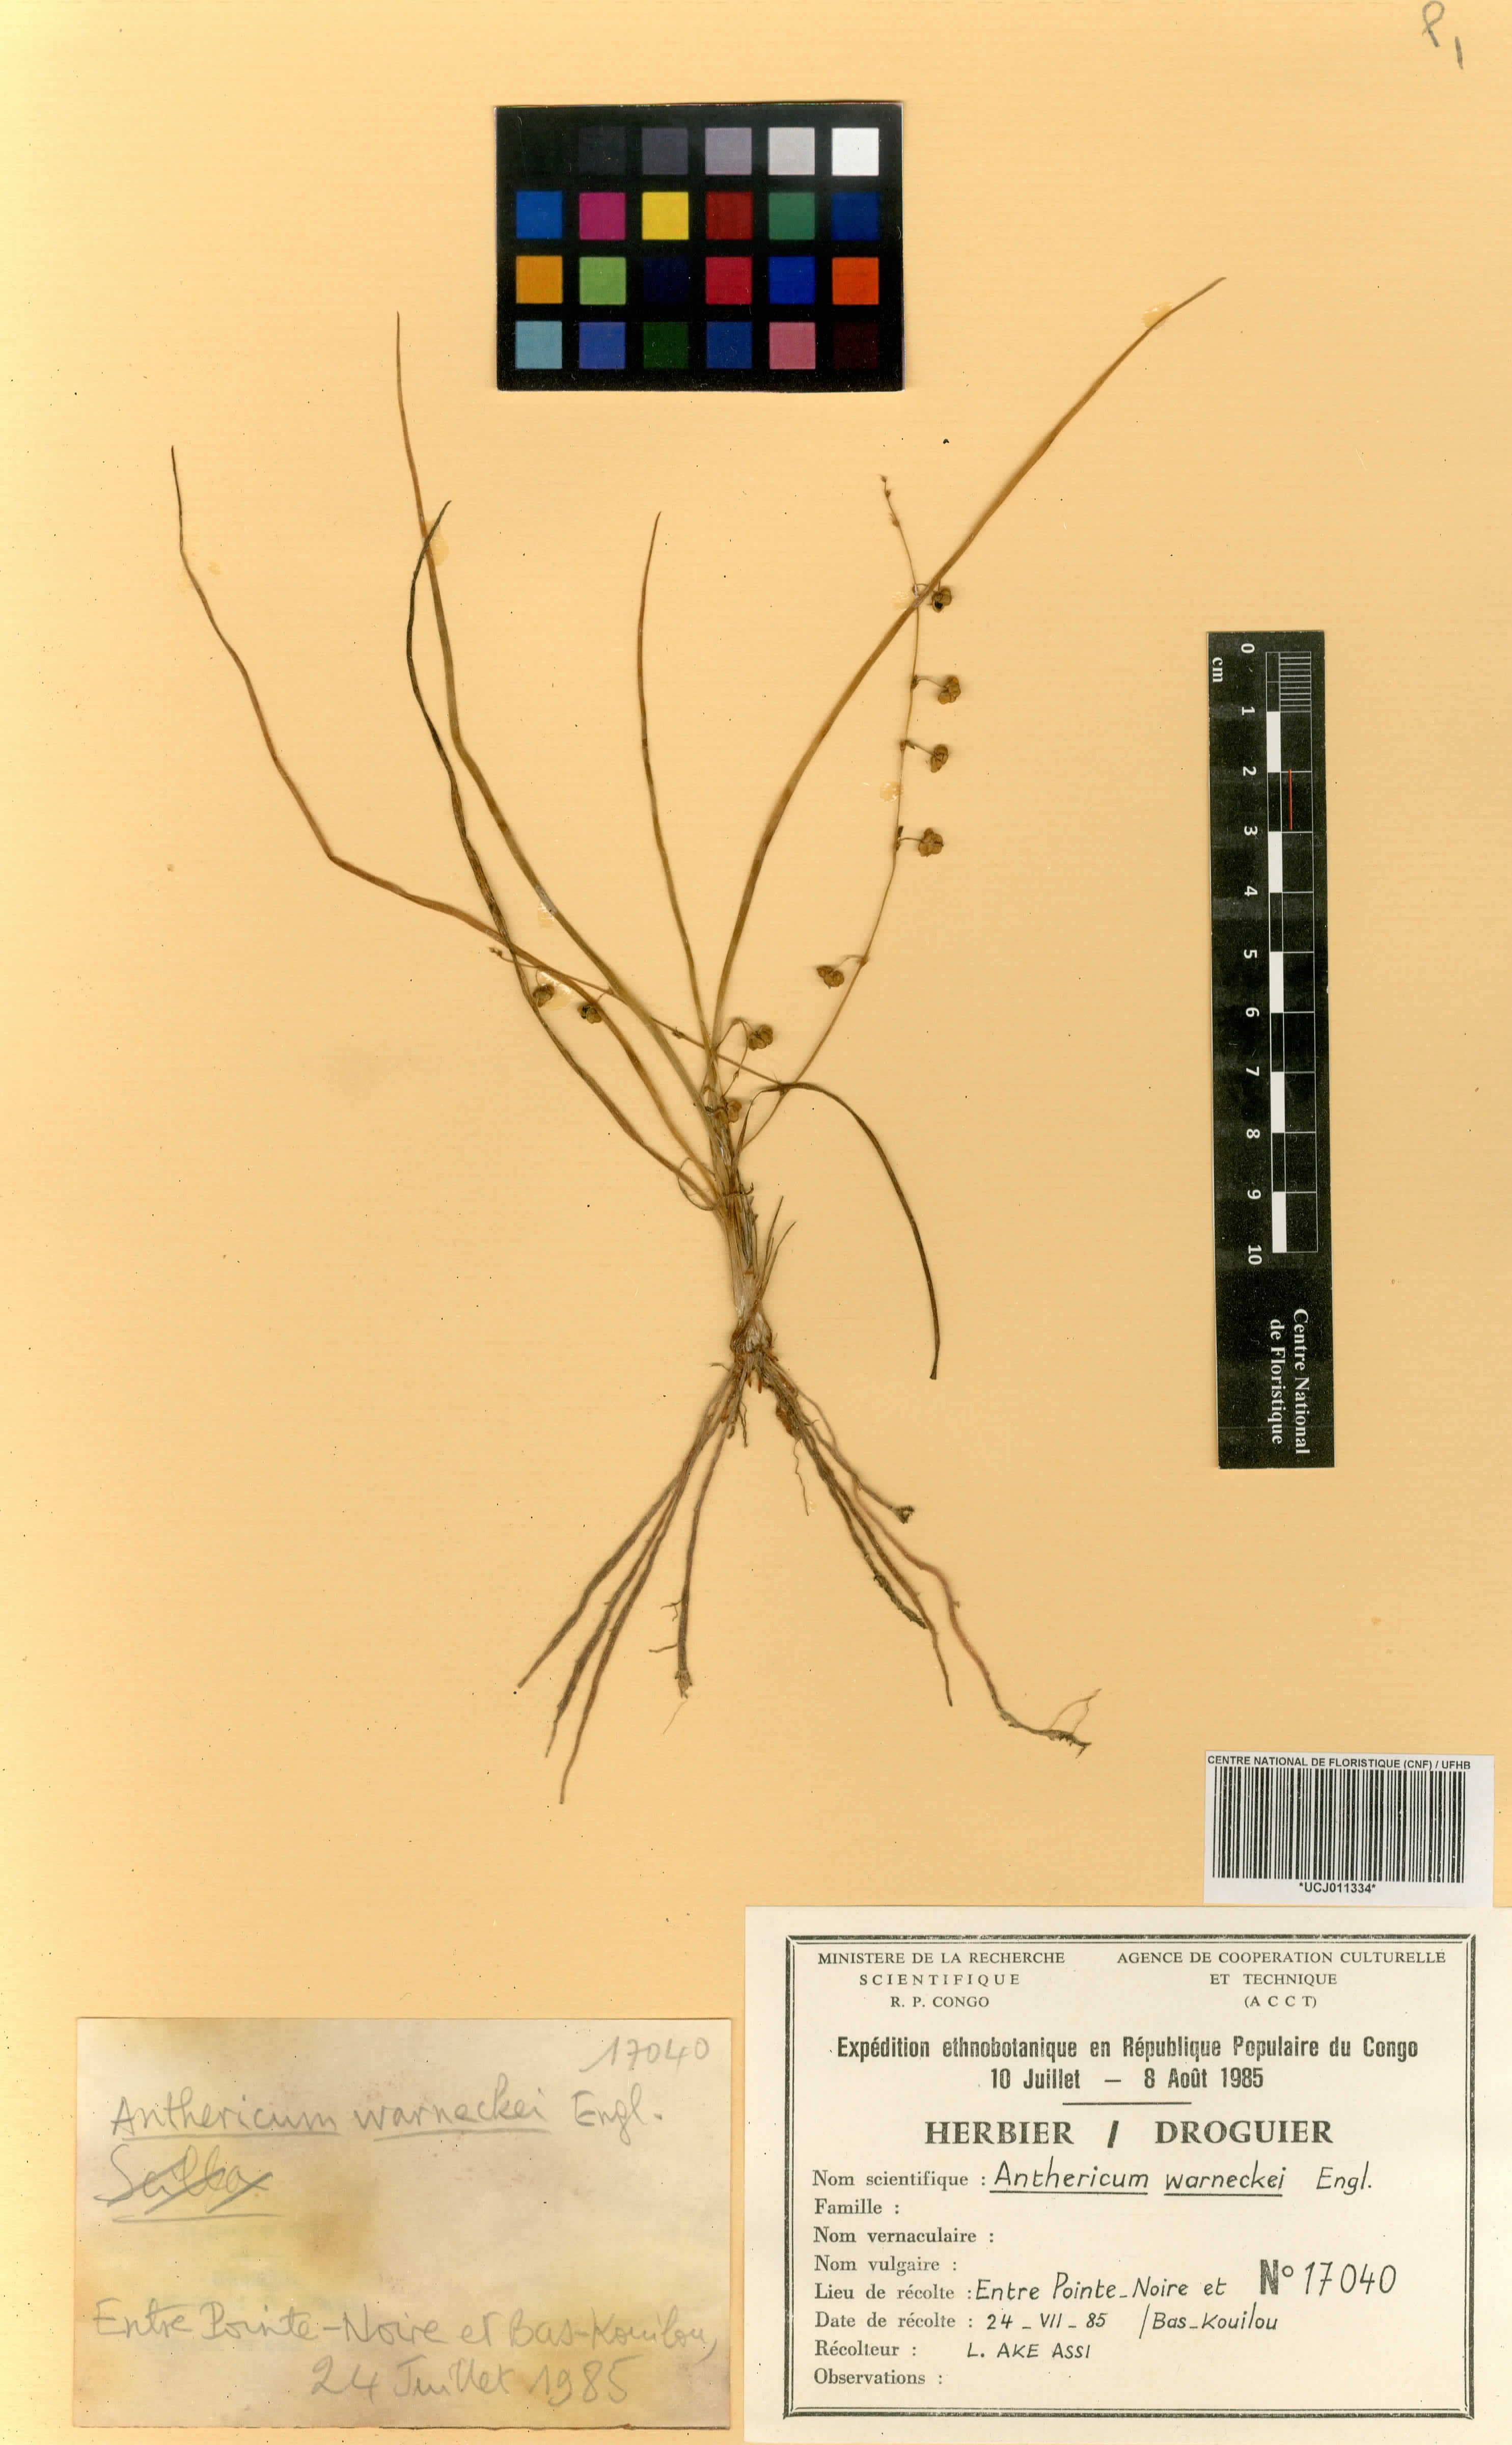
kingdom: Plantae
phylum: Tracheophyta
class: Liliopsida
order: Asparagales
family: Asparagaceae
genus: Chlorophytum
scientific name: Chlorophytum warneckei
